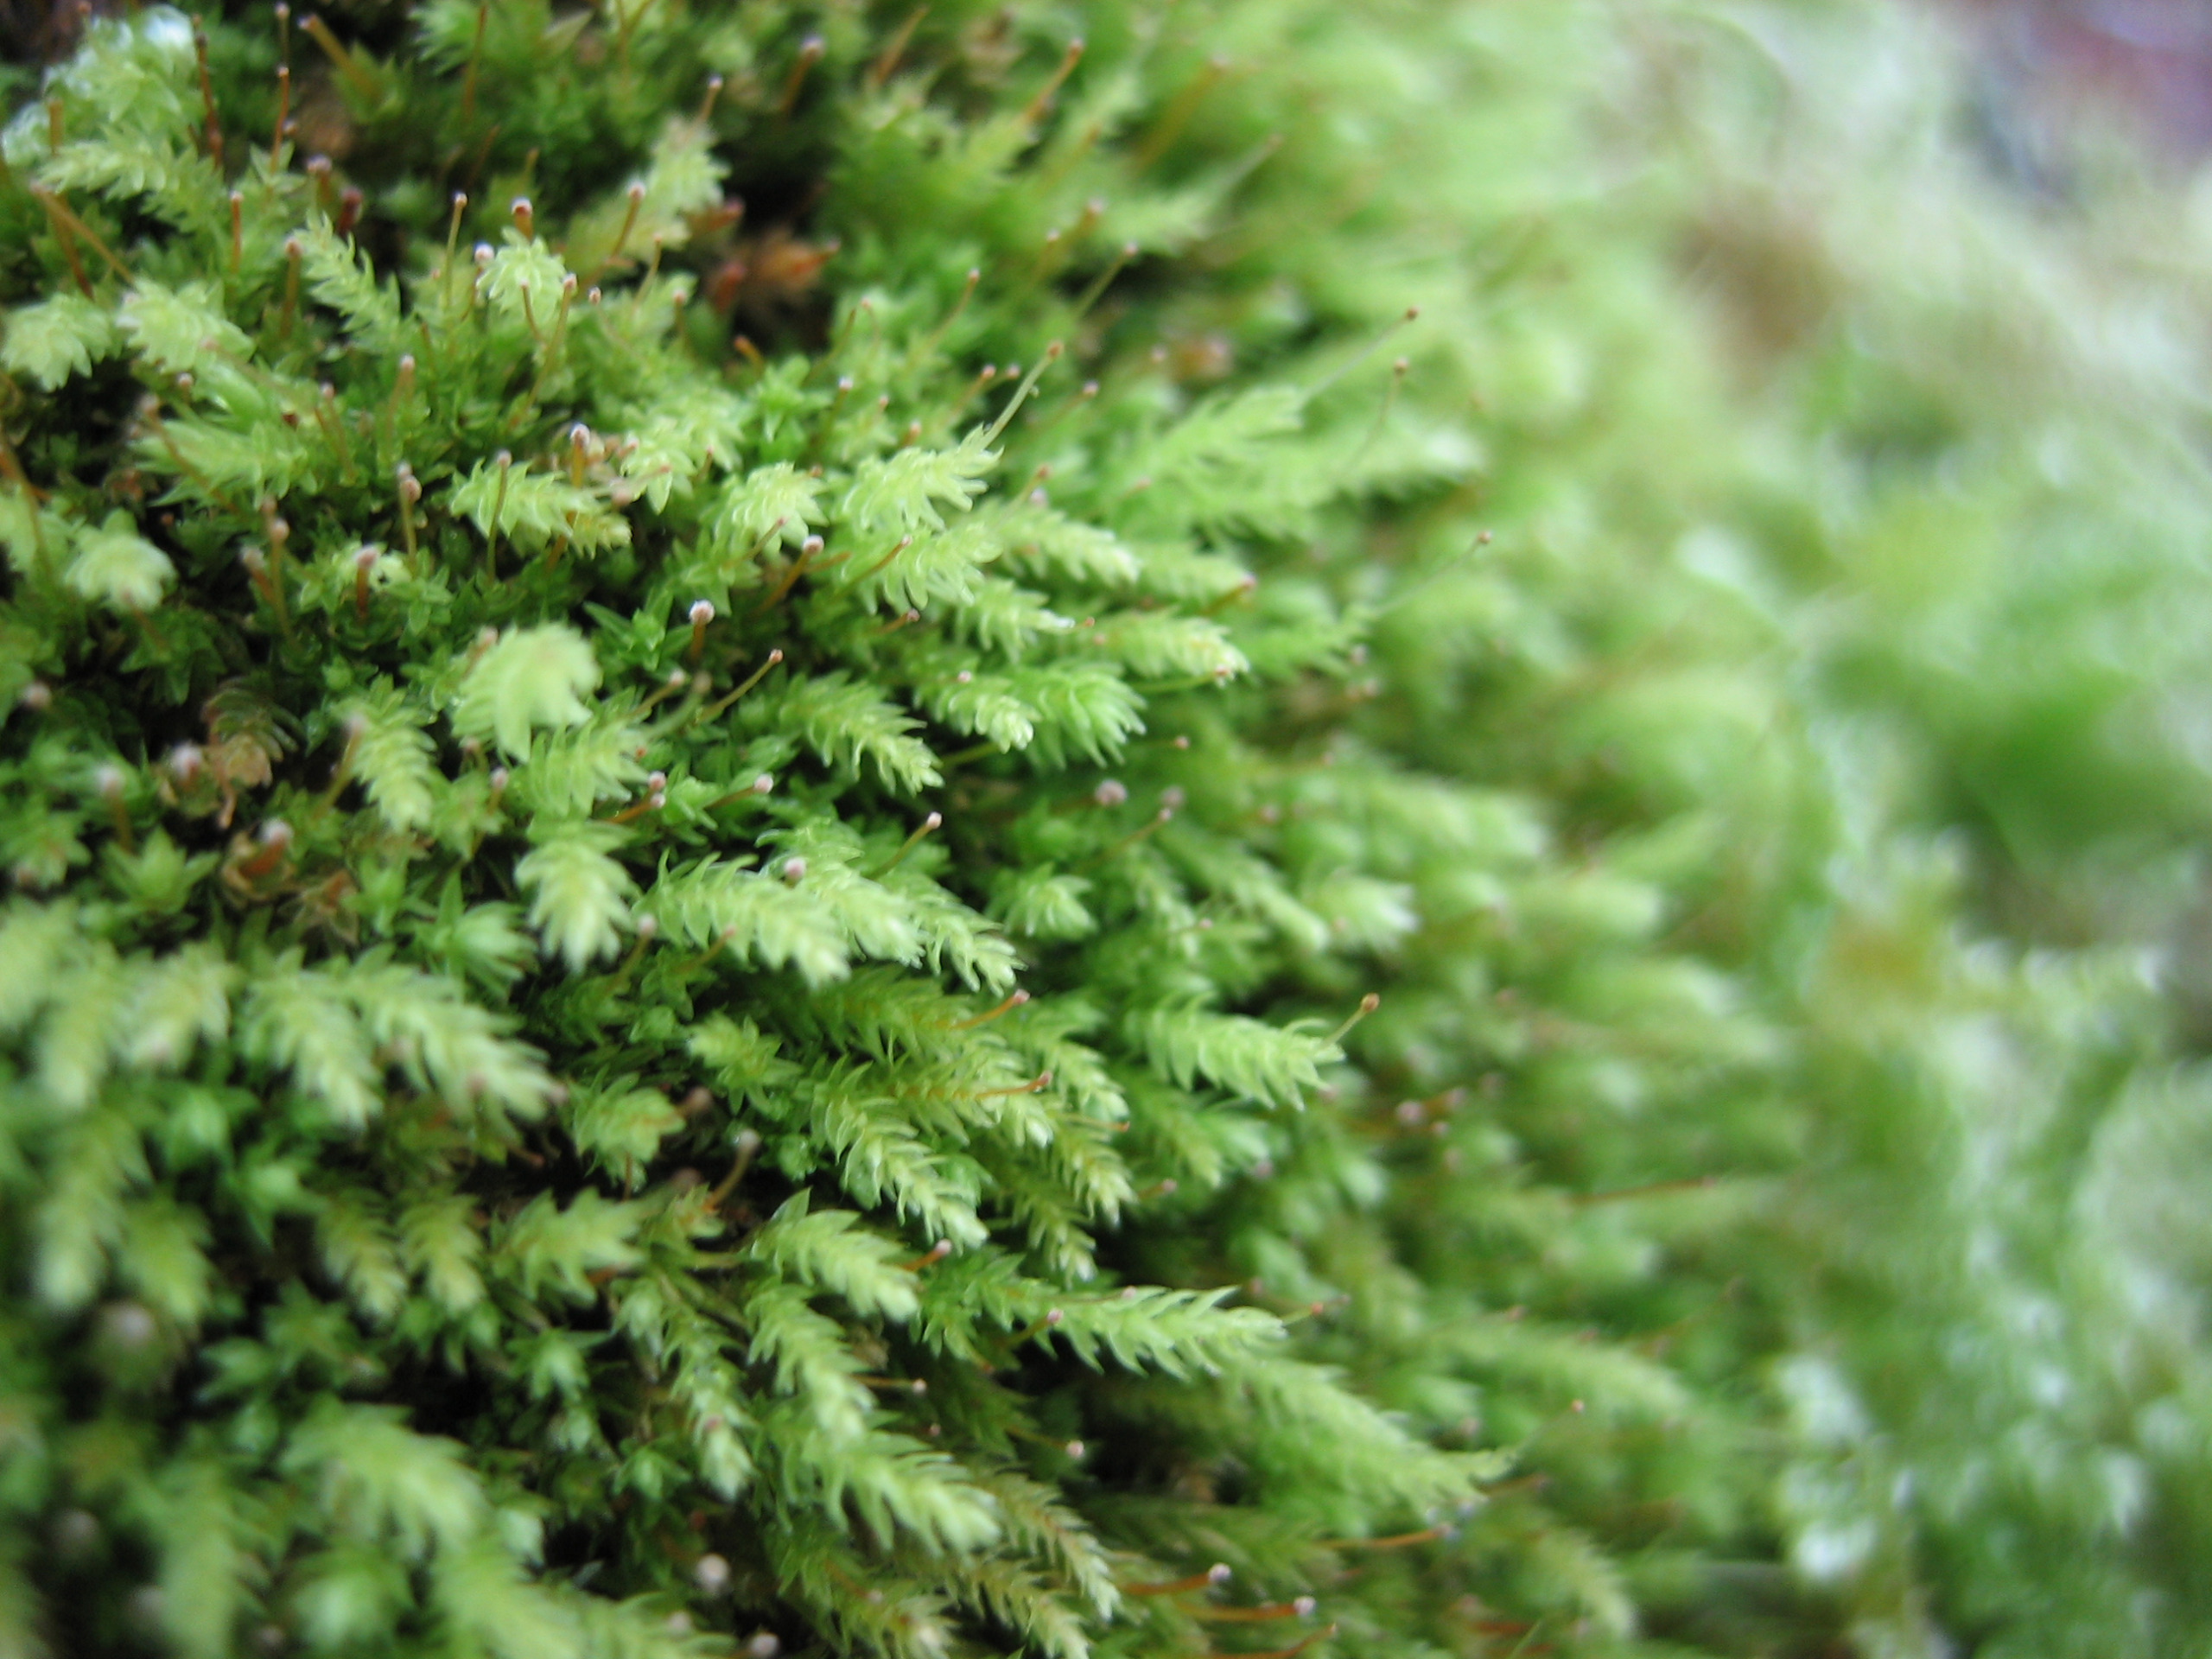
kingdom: Plantae
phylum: Bryophyta
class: Bryopsida
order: Aulacomniales
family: Aulacomniaceae
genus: Aulacomnium
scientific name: Aulacomnium androgynum
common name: Kugle-filtmos
